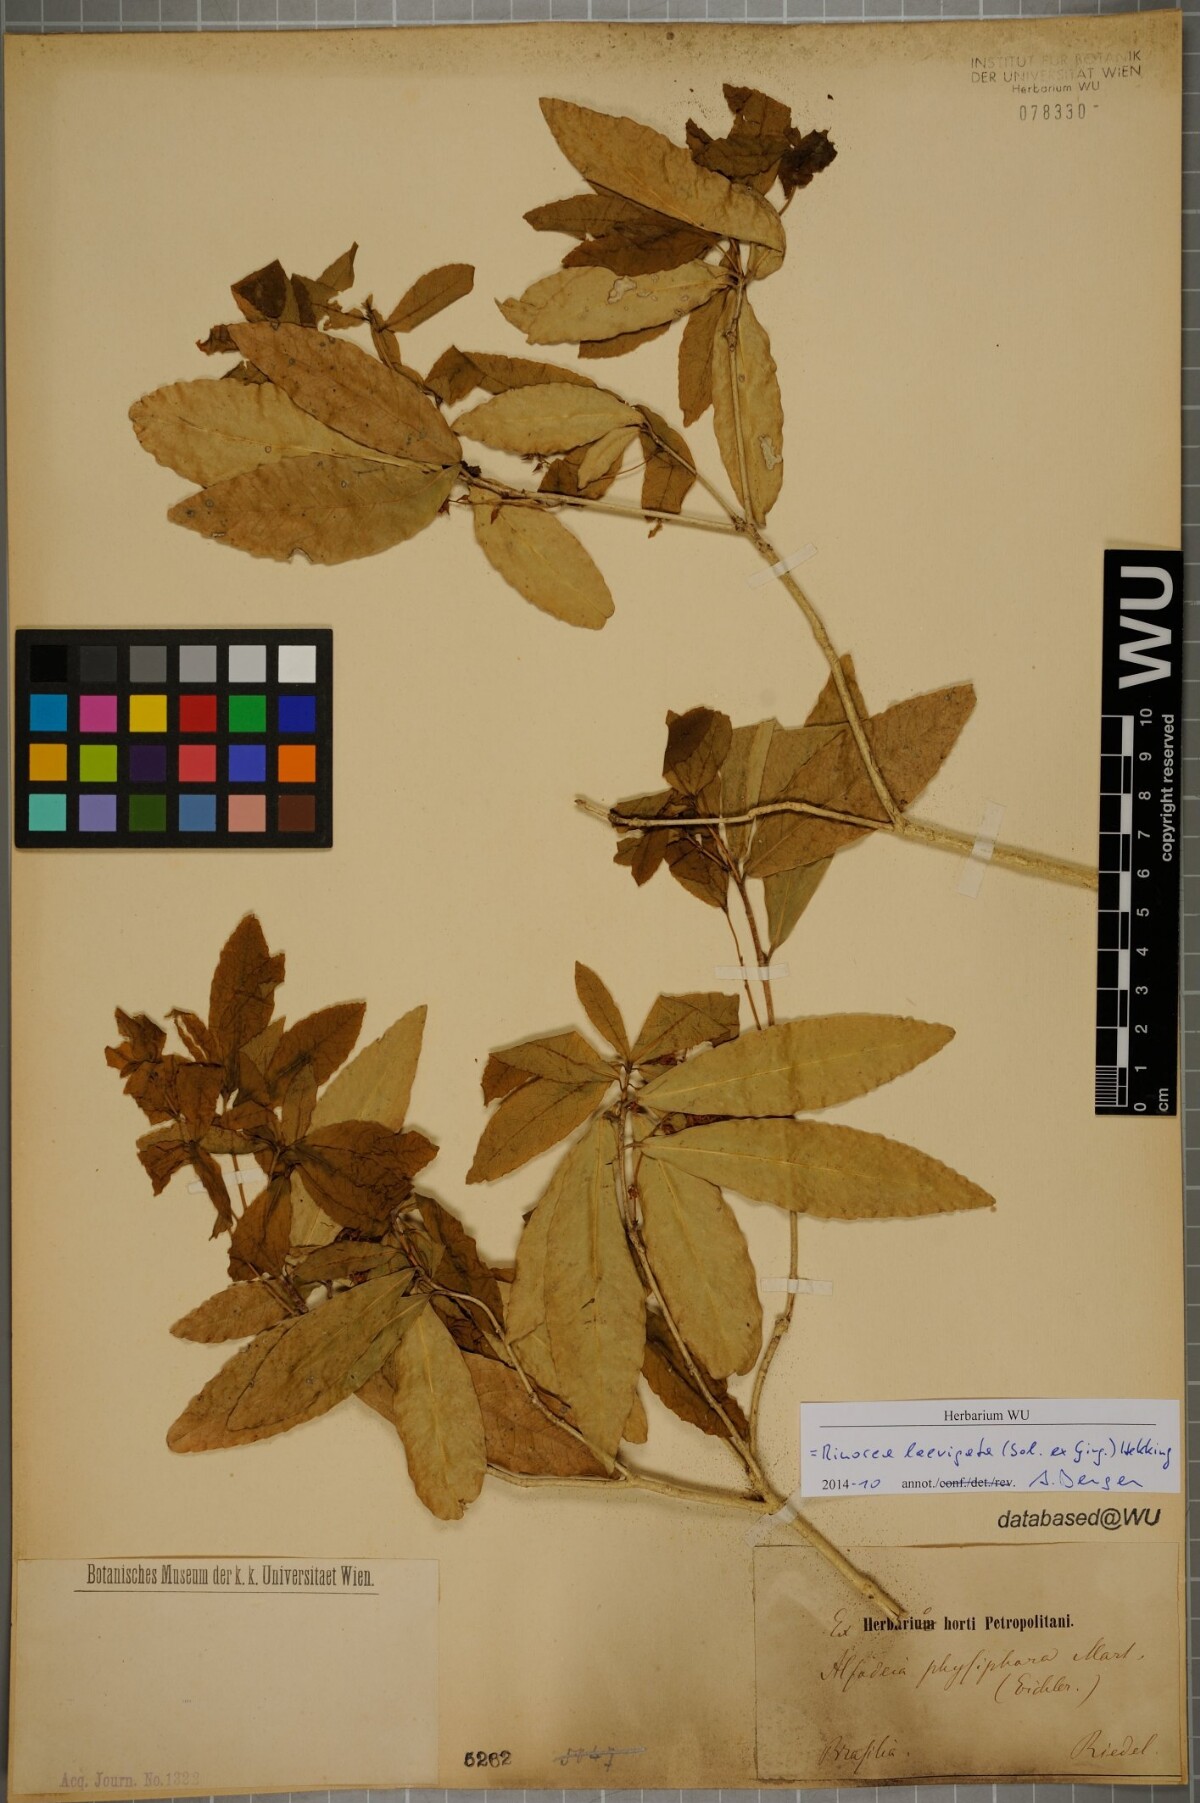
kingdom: Plantae
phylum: Tracheophyta
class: Magnoliopsida
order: Malpighiales
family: Violaceae
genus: Rinorea
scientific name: Rinorea laevigata
